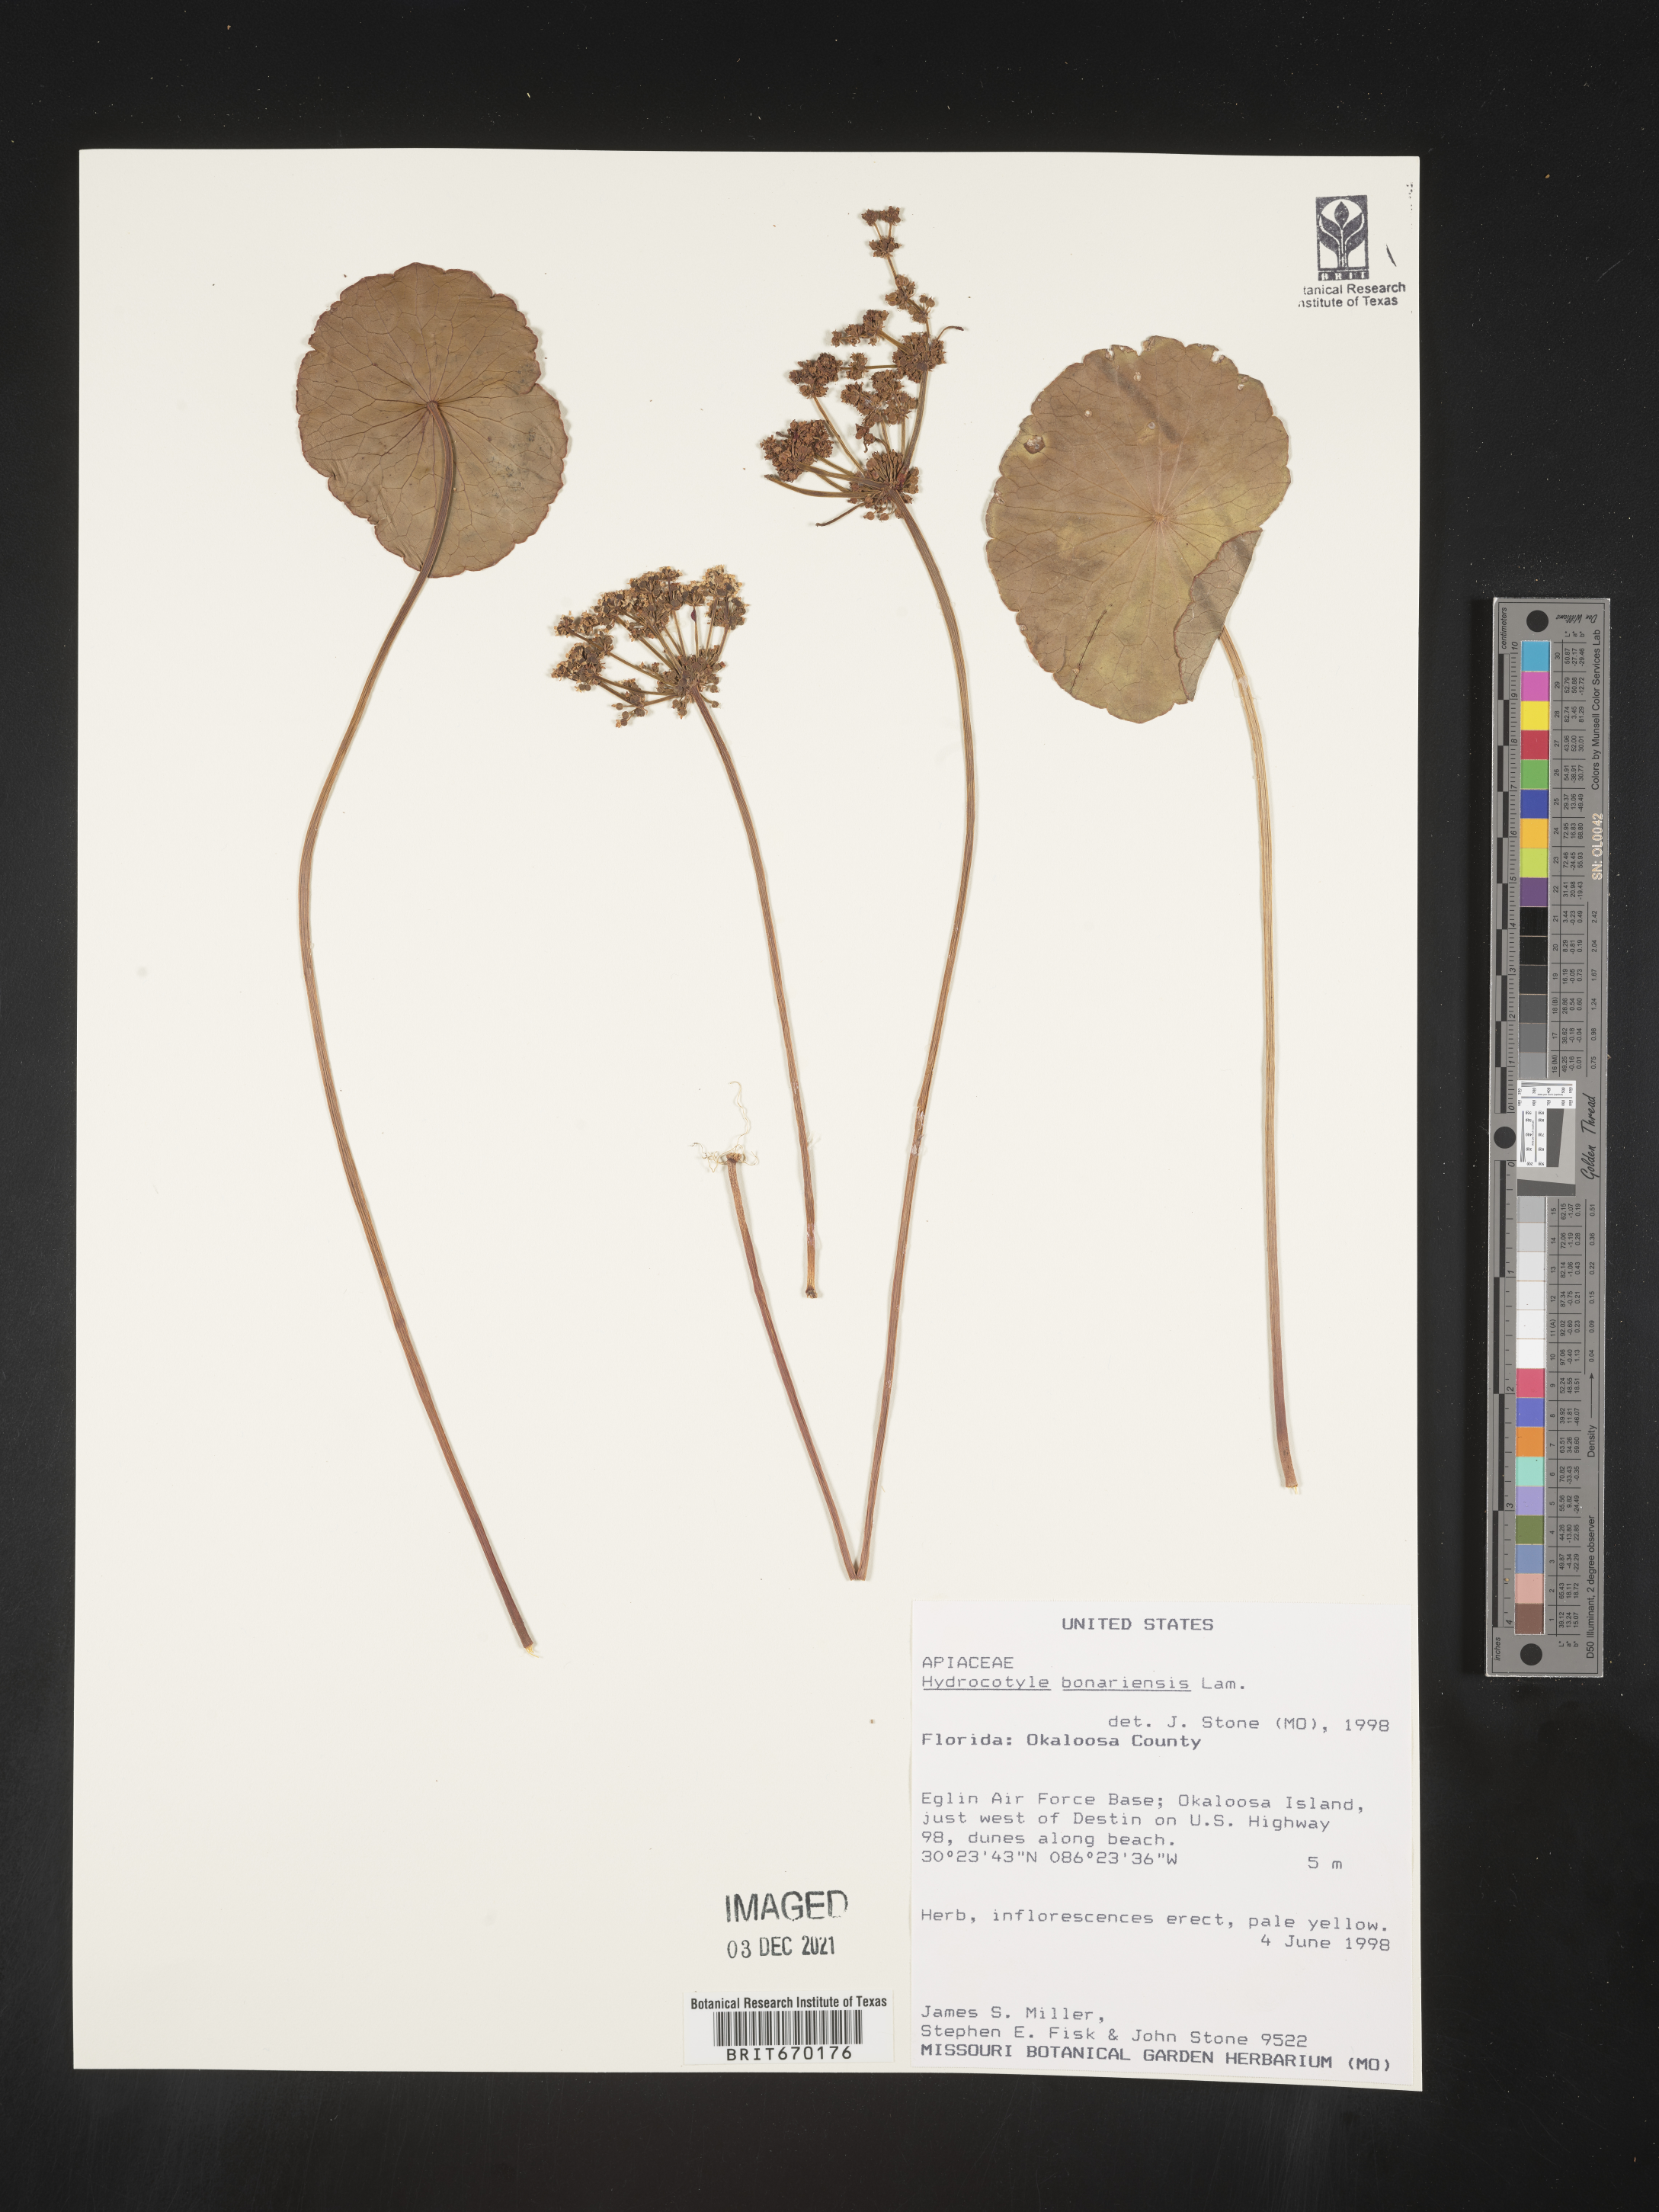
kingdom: Plantae
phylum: Tracheophyta
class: Magnoliopsida
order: Apiales
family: Araliaceae
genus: Hydrocotyle
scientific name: Hydrocotyle bonariensis
